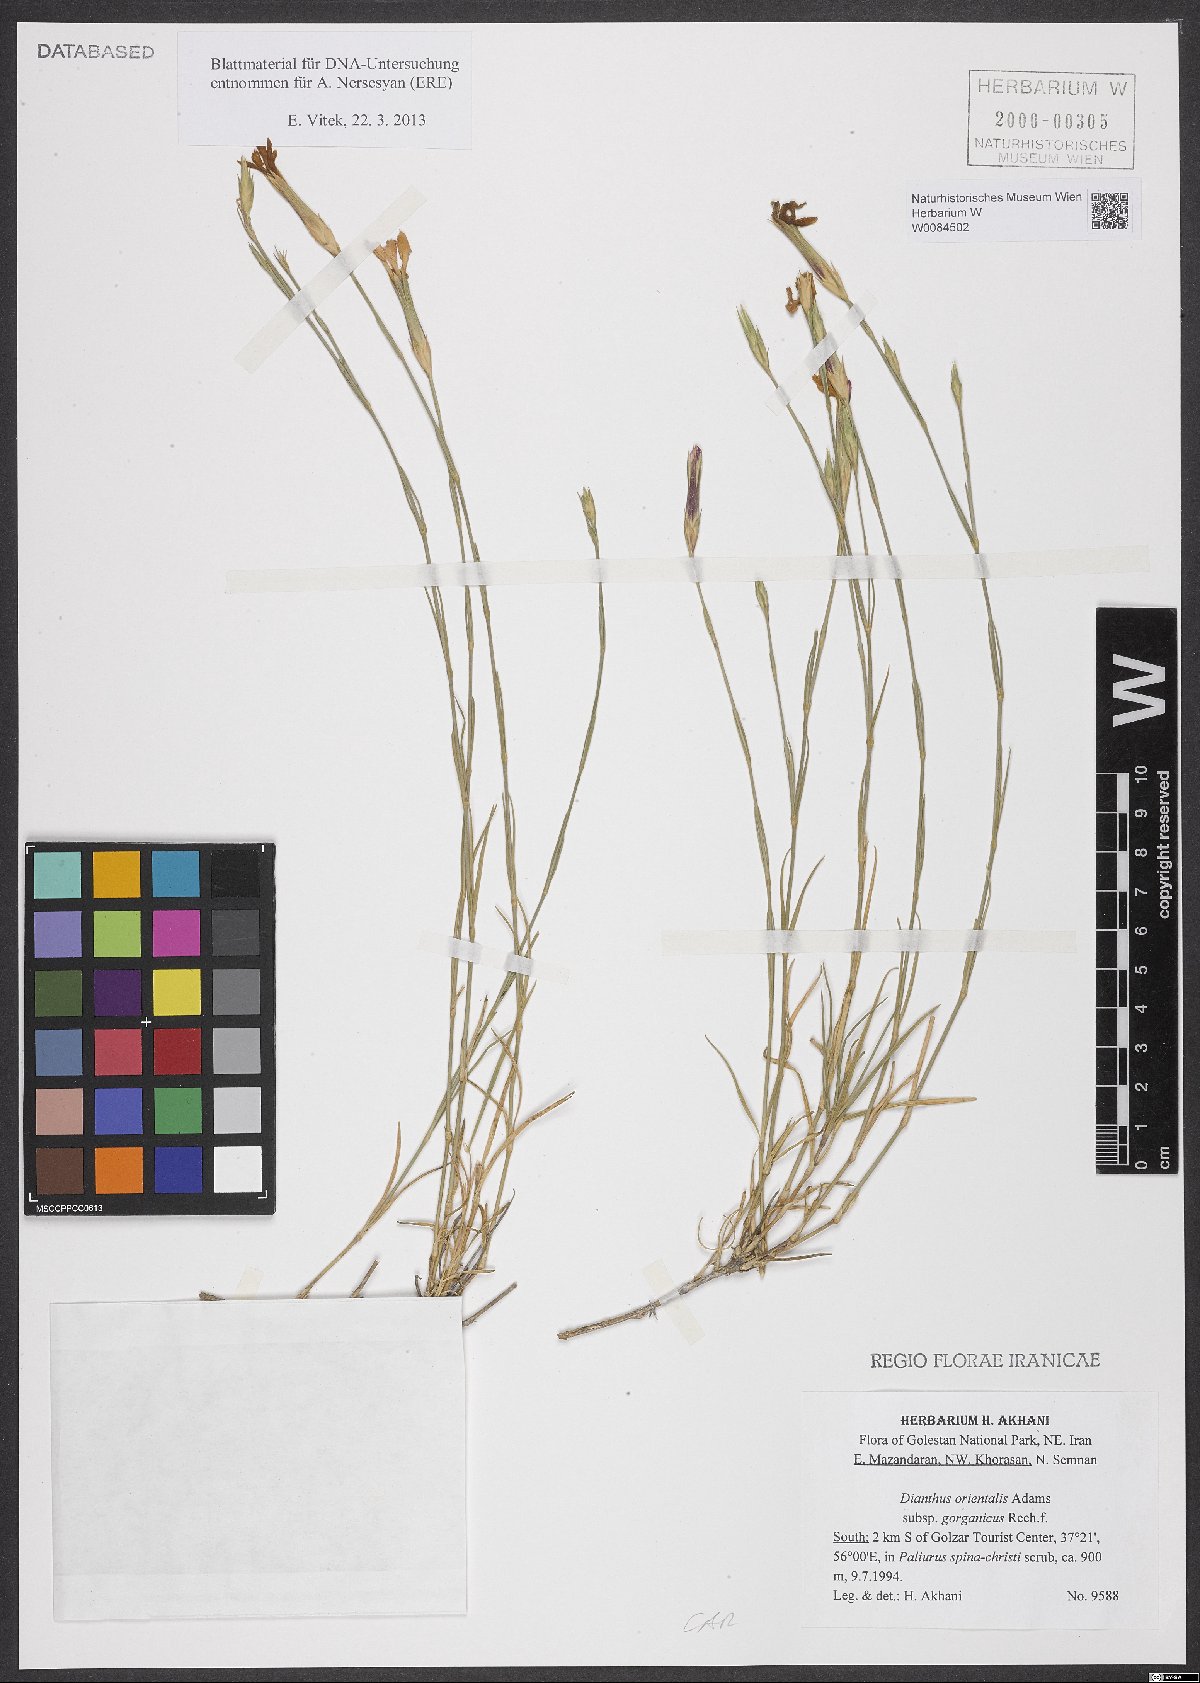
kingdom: Plantae
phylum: Tracheophyta
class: Magnoliopsida
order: Caryophyllales
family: Caryophyllaceae
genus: Dianthus
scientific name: Dianthus orientalis
